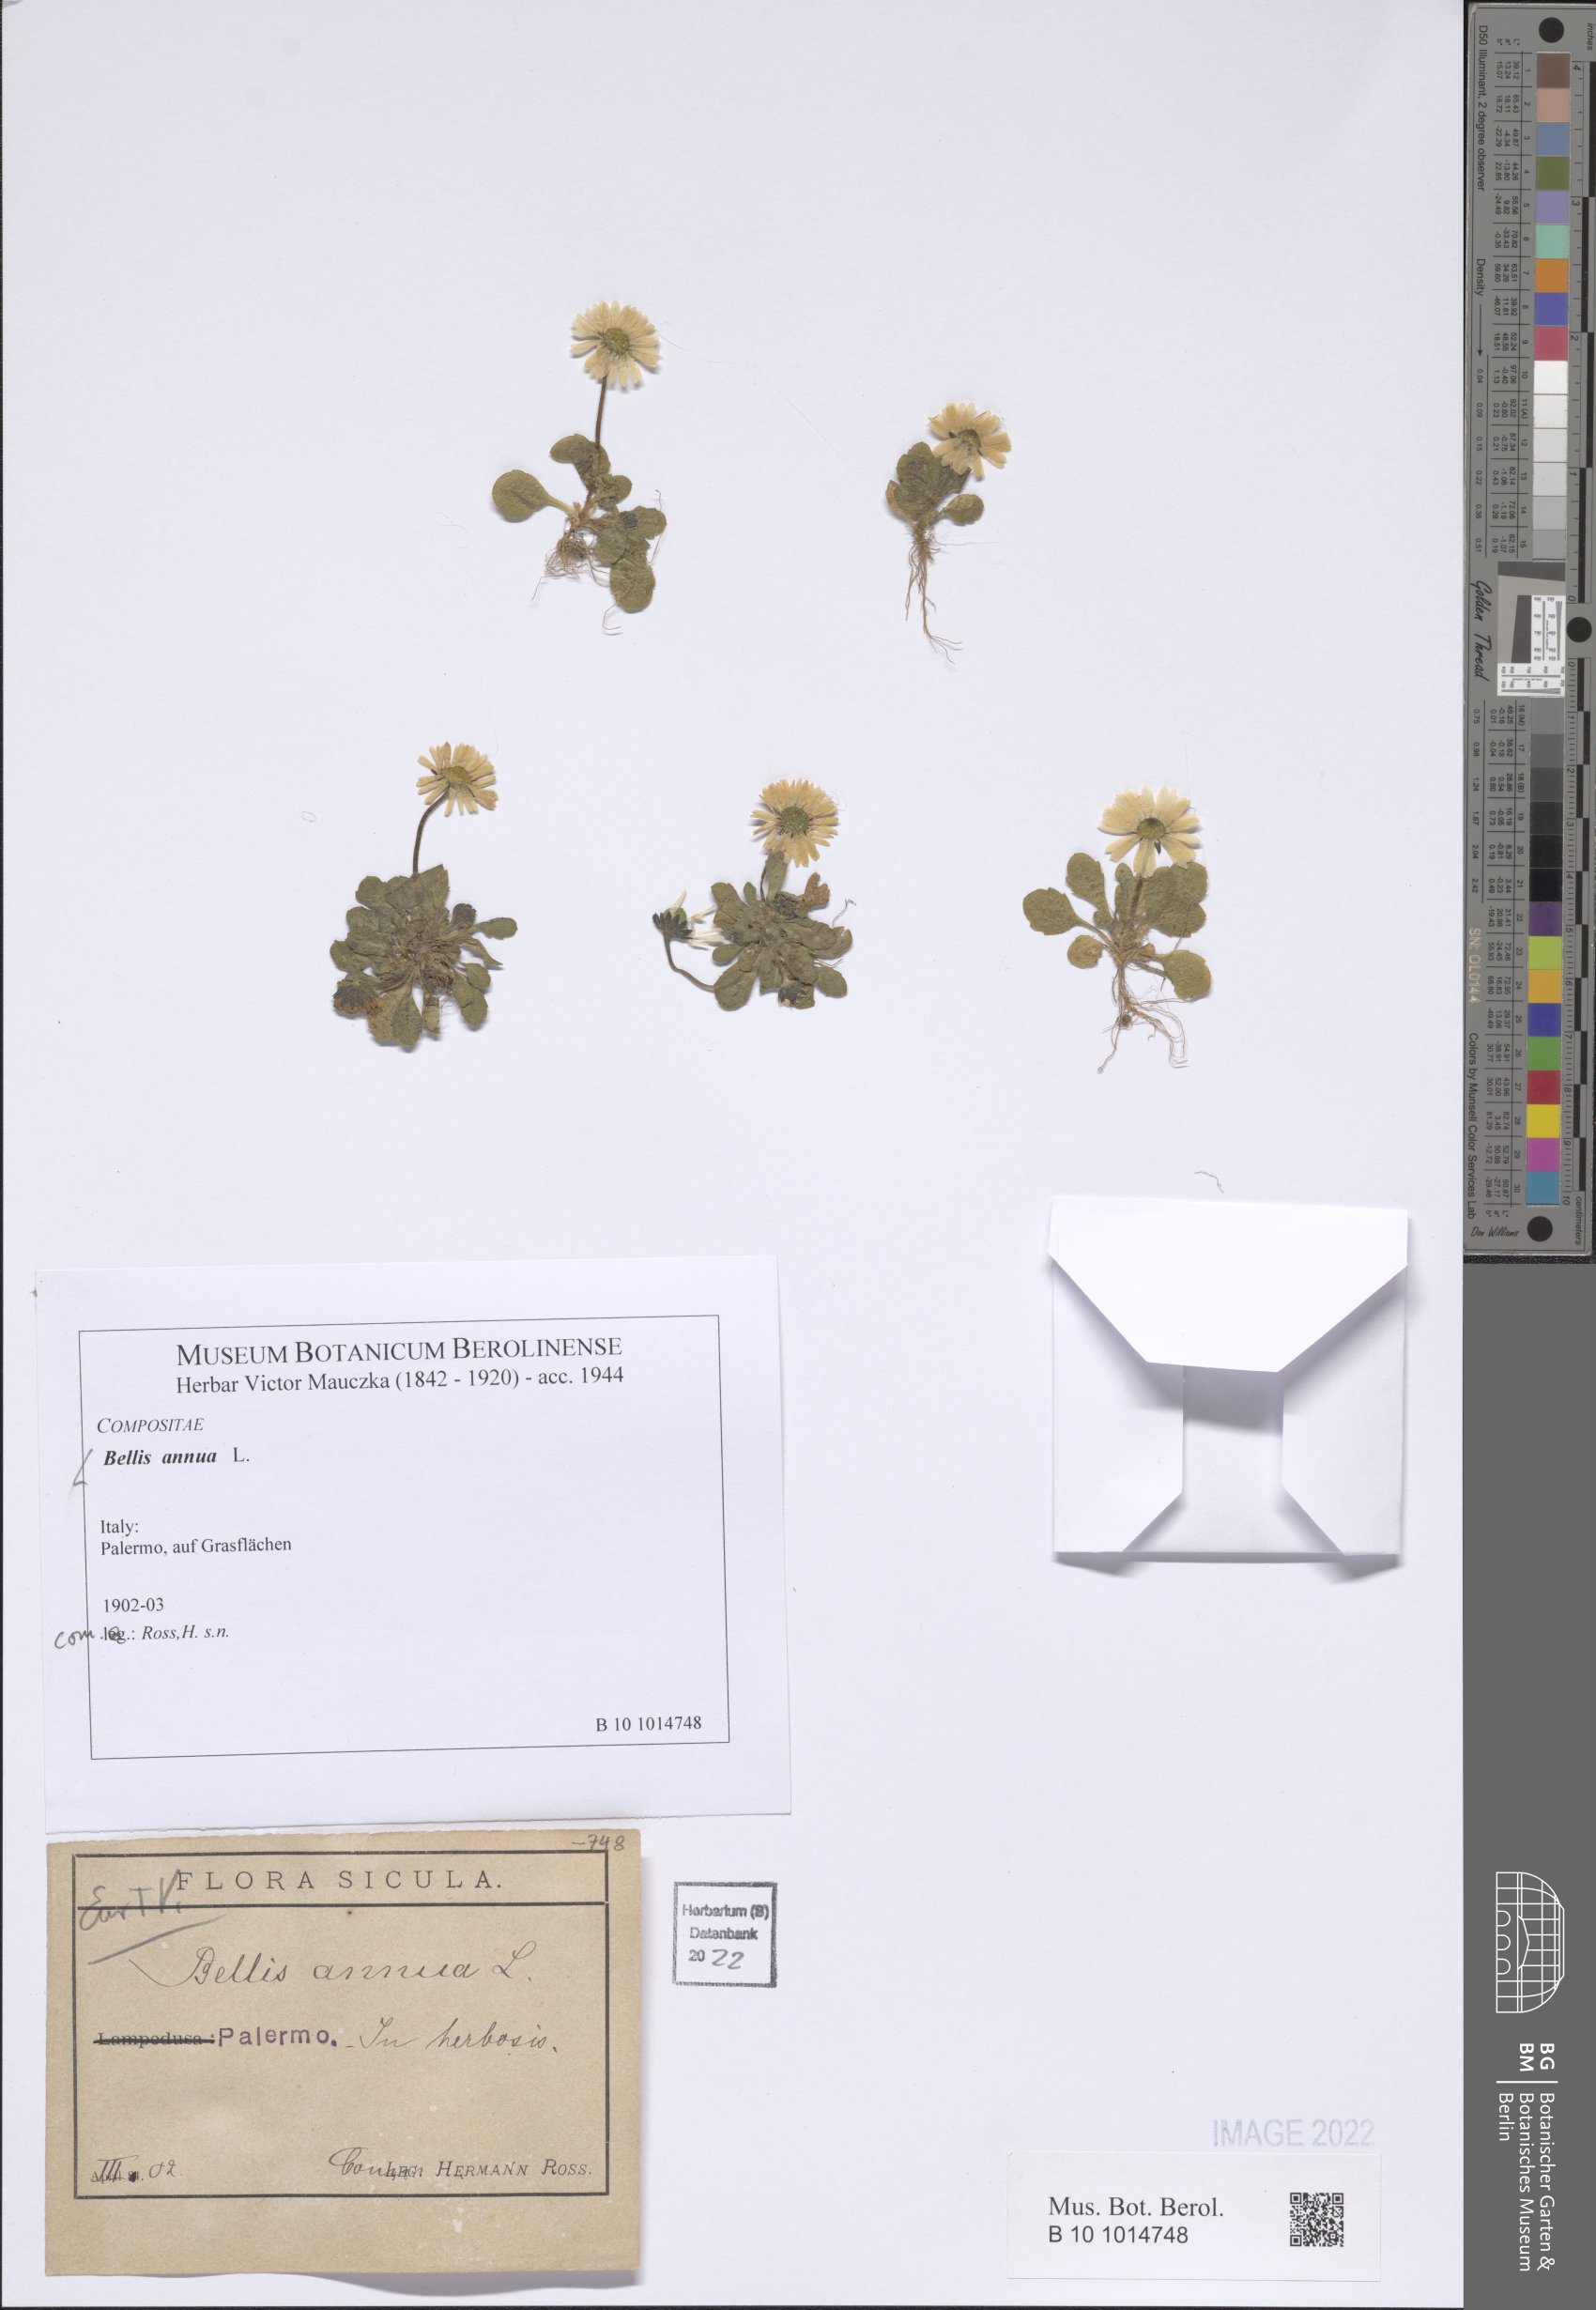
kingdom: Plantae
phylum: Tracheophyta
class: Magnoliopsida
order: Asterales
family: Asteraceae
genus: Bellis
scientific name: Bellis annua
